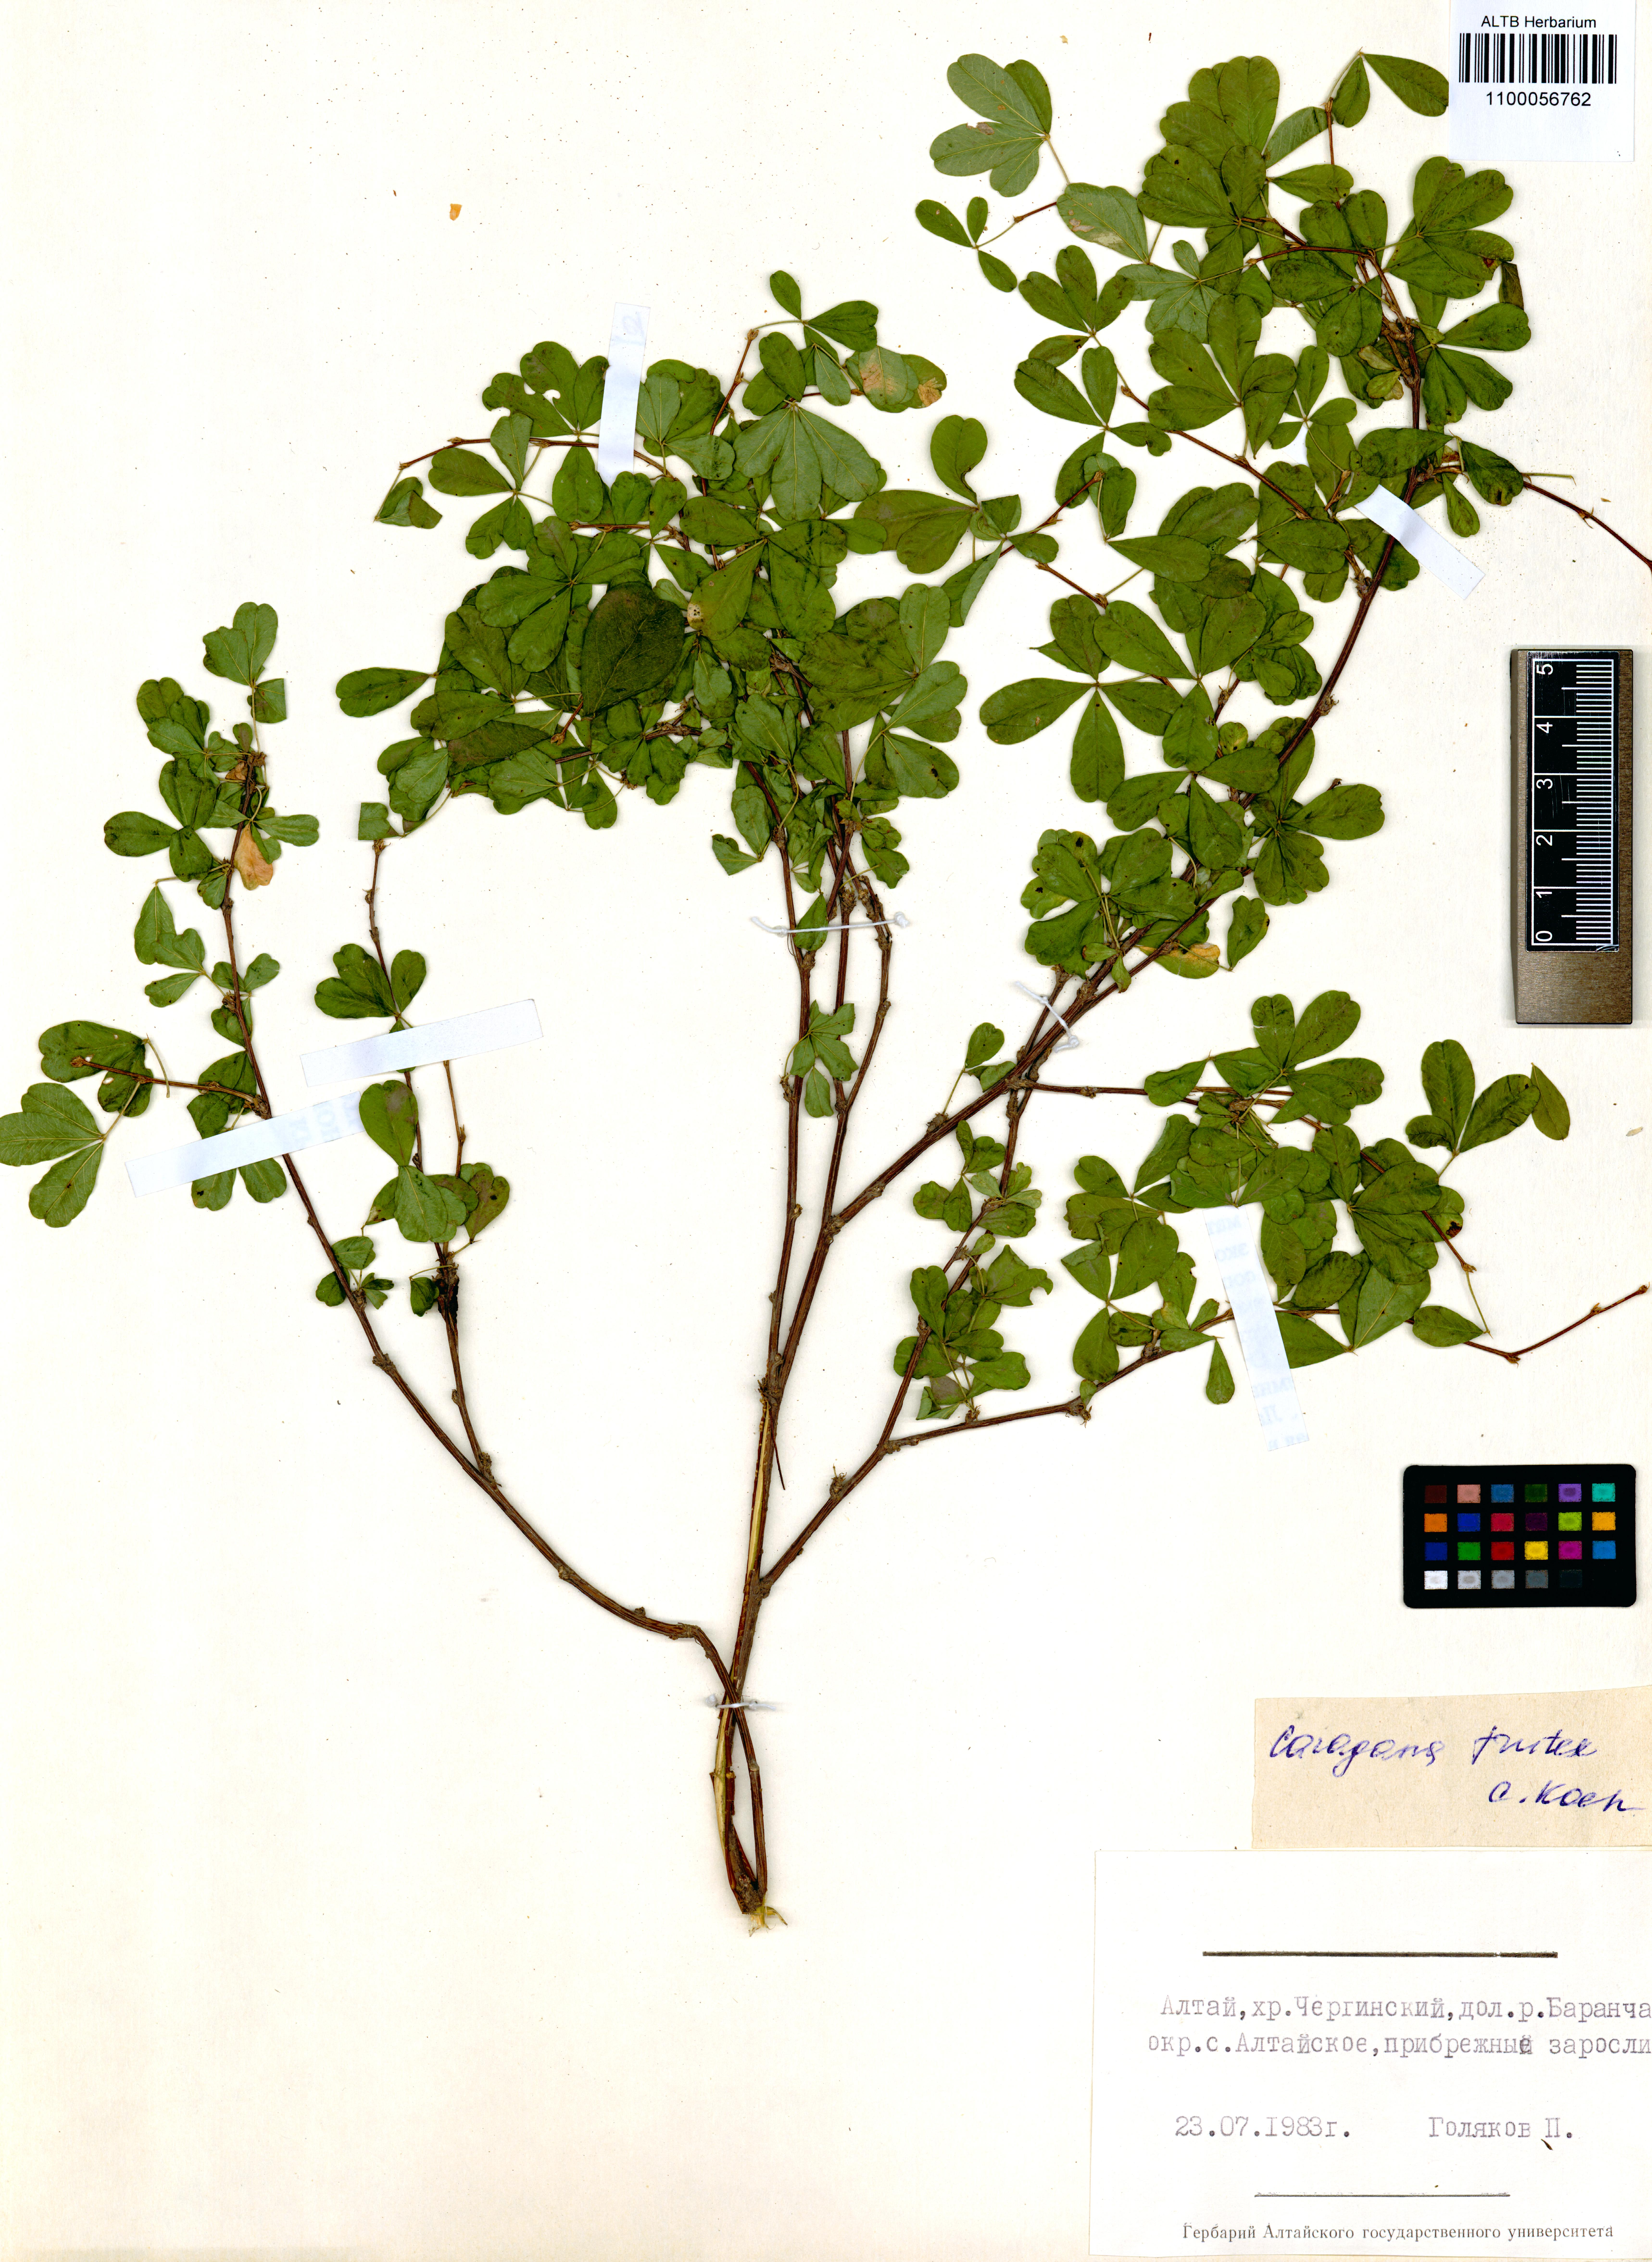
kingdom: Plantae
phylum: Tracheophyta
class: Magnoliopsida
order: Fabales
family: Fabaceae
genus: Caragana
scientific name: Caragana frutex
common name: Russian peashrub
